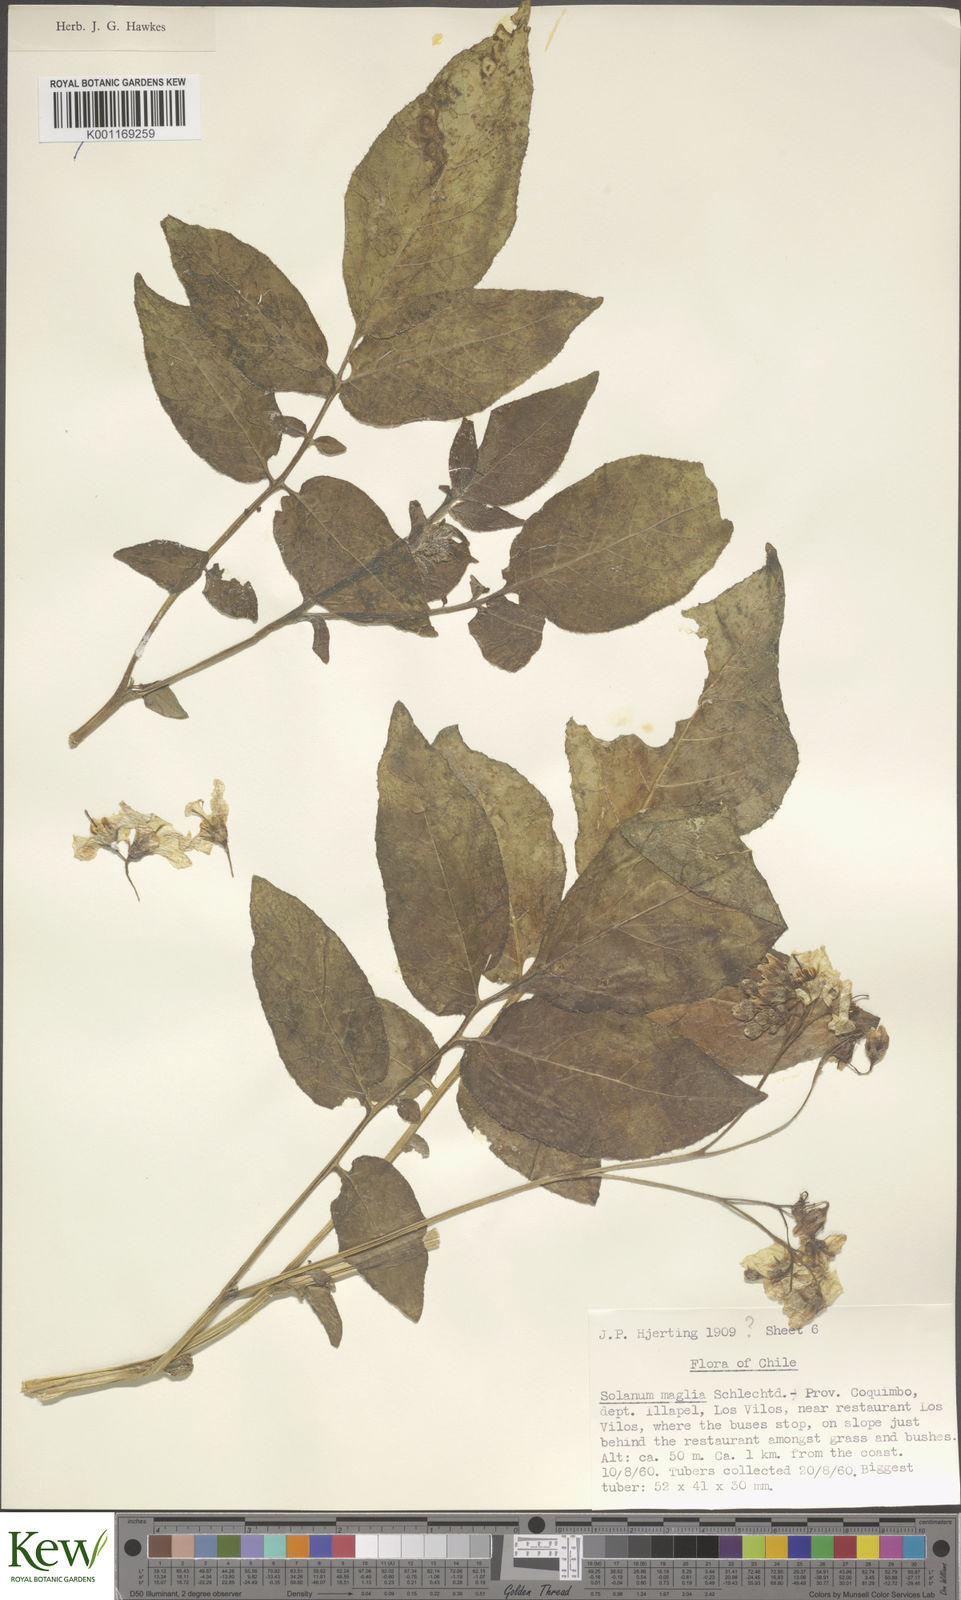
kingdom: Plantae
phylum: Tracheophyta
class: Magnoliopsida
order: Solanales
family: Solanaceae
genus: Solanum
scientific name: Solanum maglia
